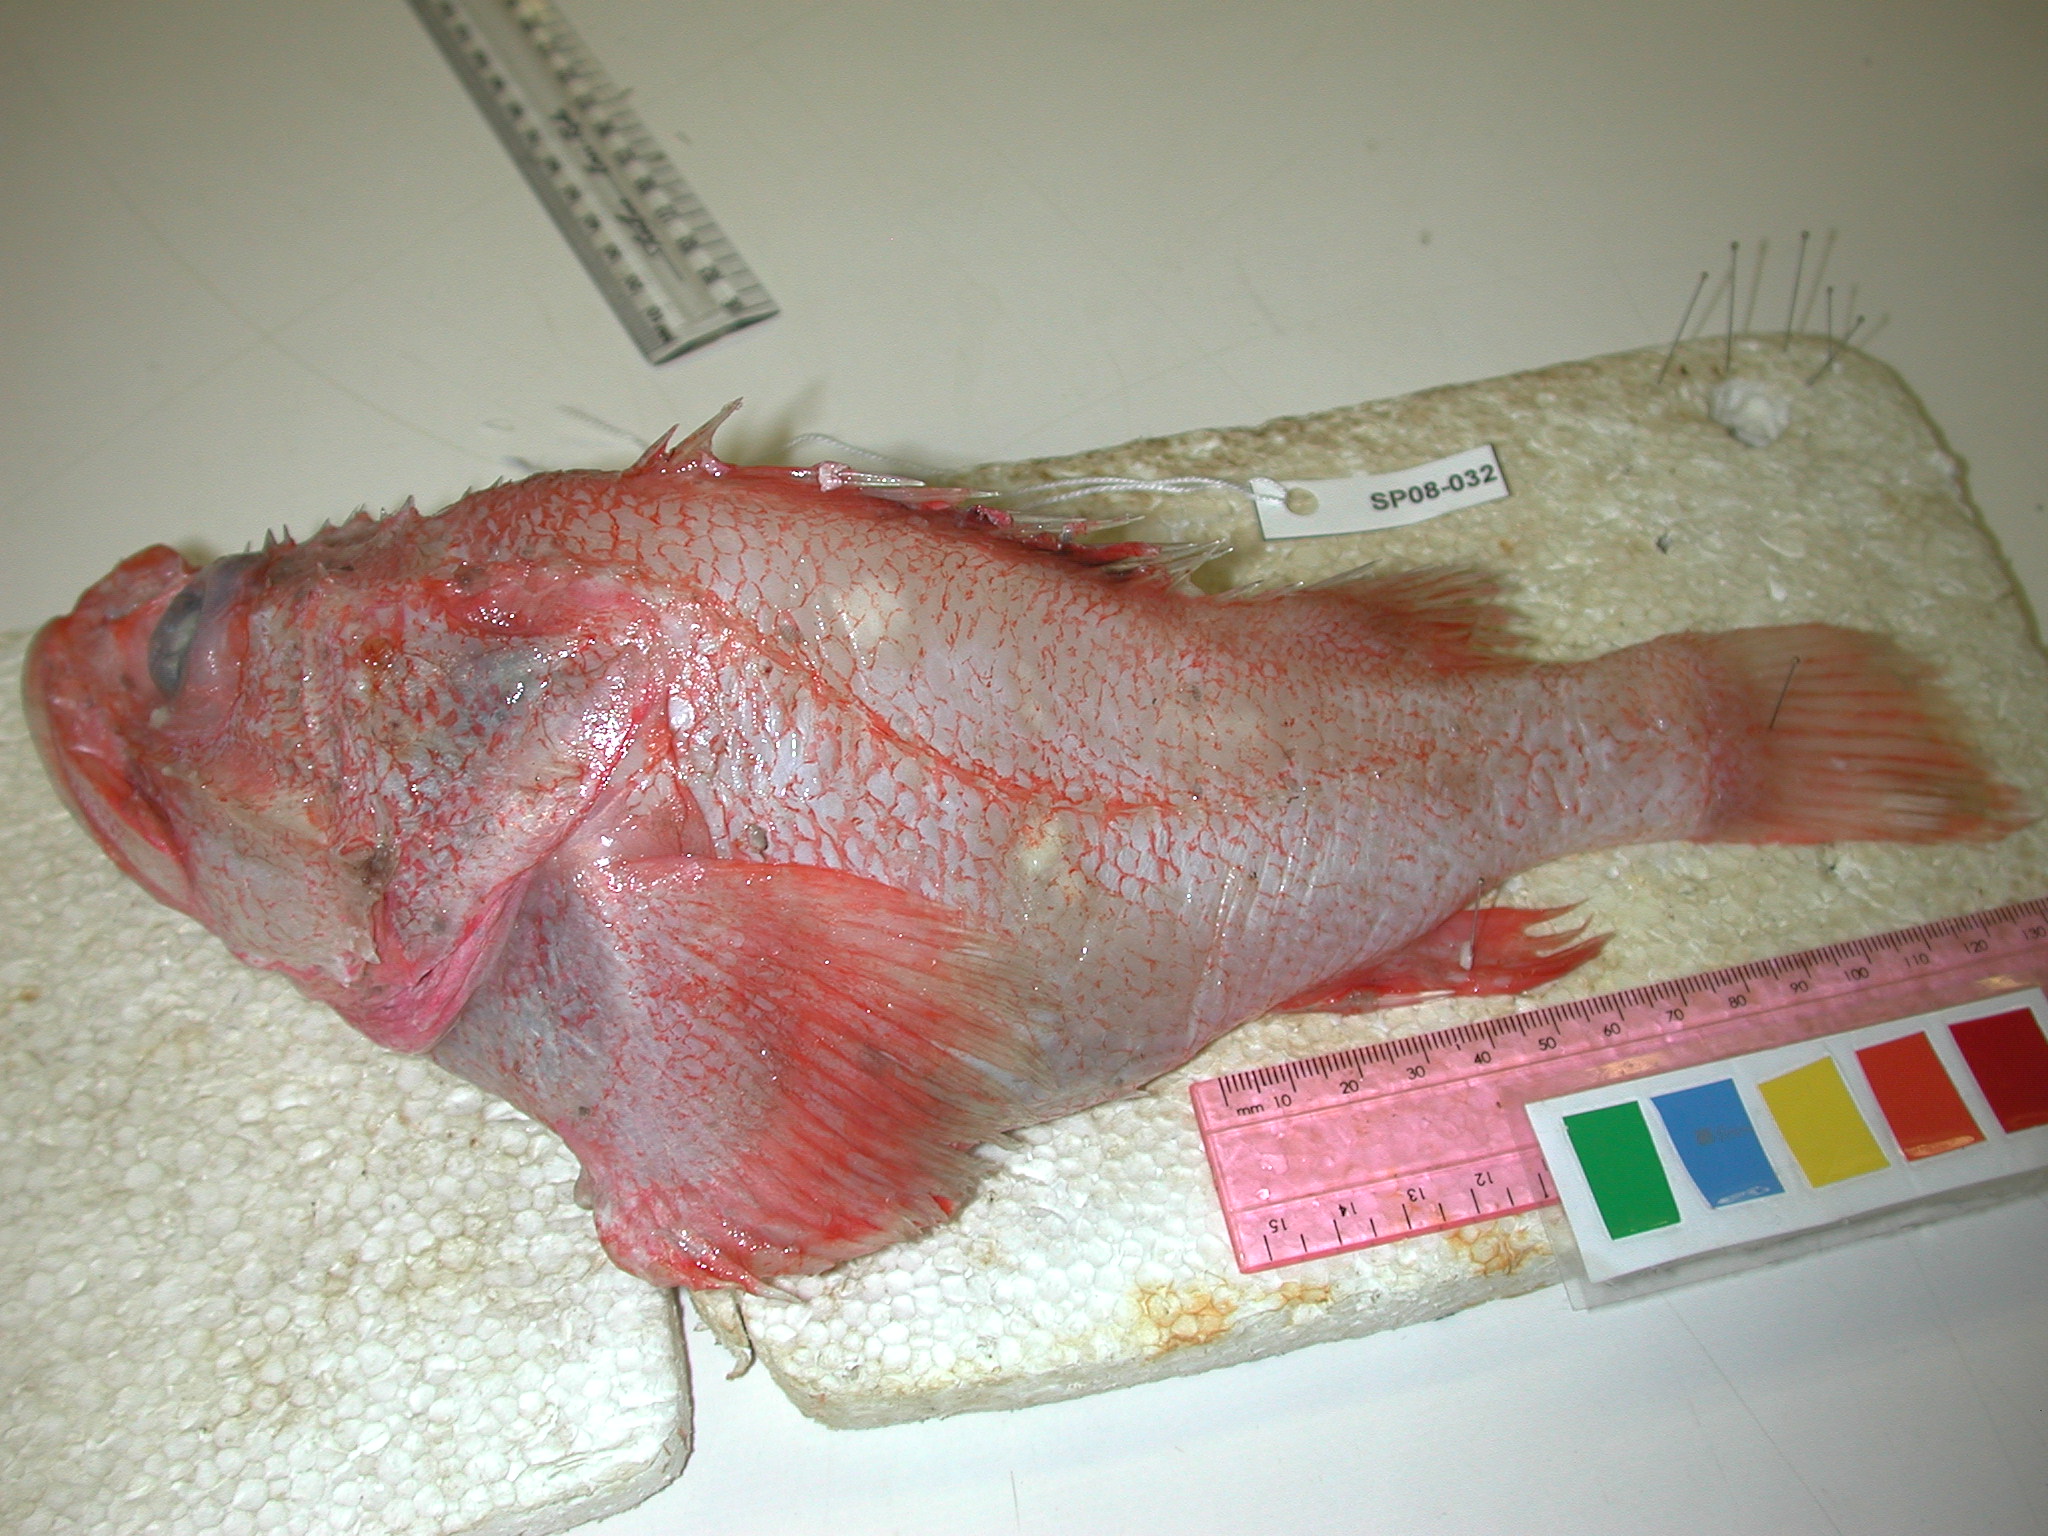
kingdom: Animalia
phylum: Chordata
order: Scorpaeniformes
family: Sebastidae
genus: Trachyscorpia
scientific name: Trachyscorpia eschmeyeri
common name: Cape scorpionfish
